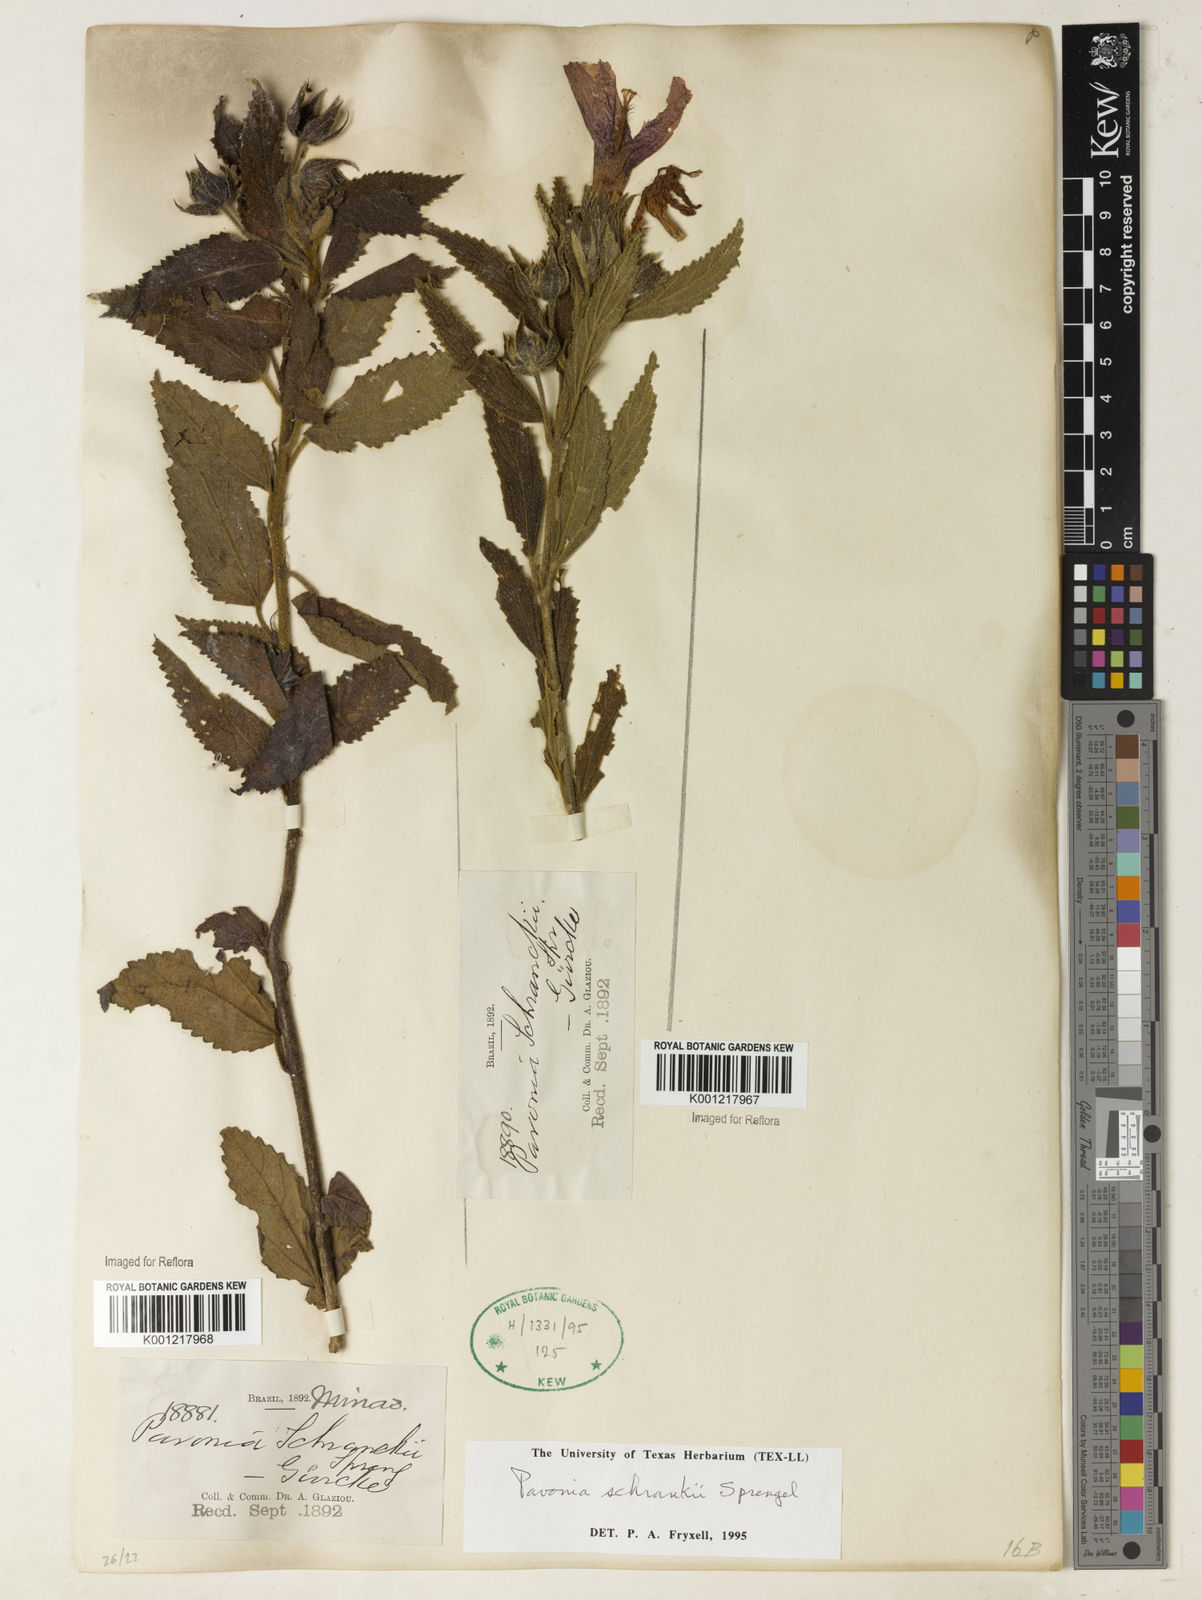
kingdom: Plantae
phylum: Tracheophyta
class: Magnoliopsida
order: Malvales
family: Malvaceae
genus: Pavonia
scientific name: Pavonia schrankii
